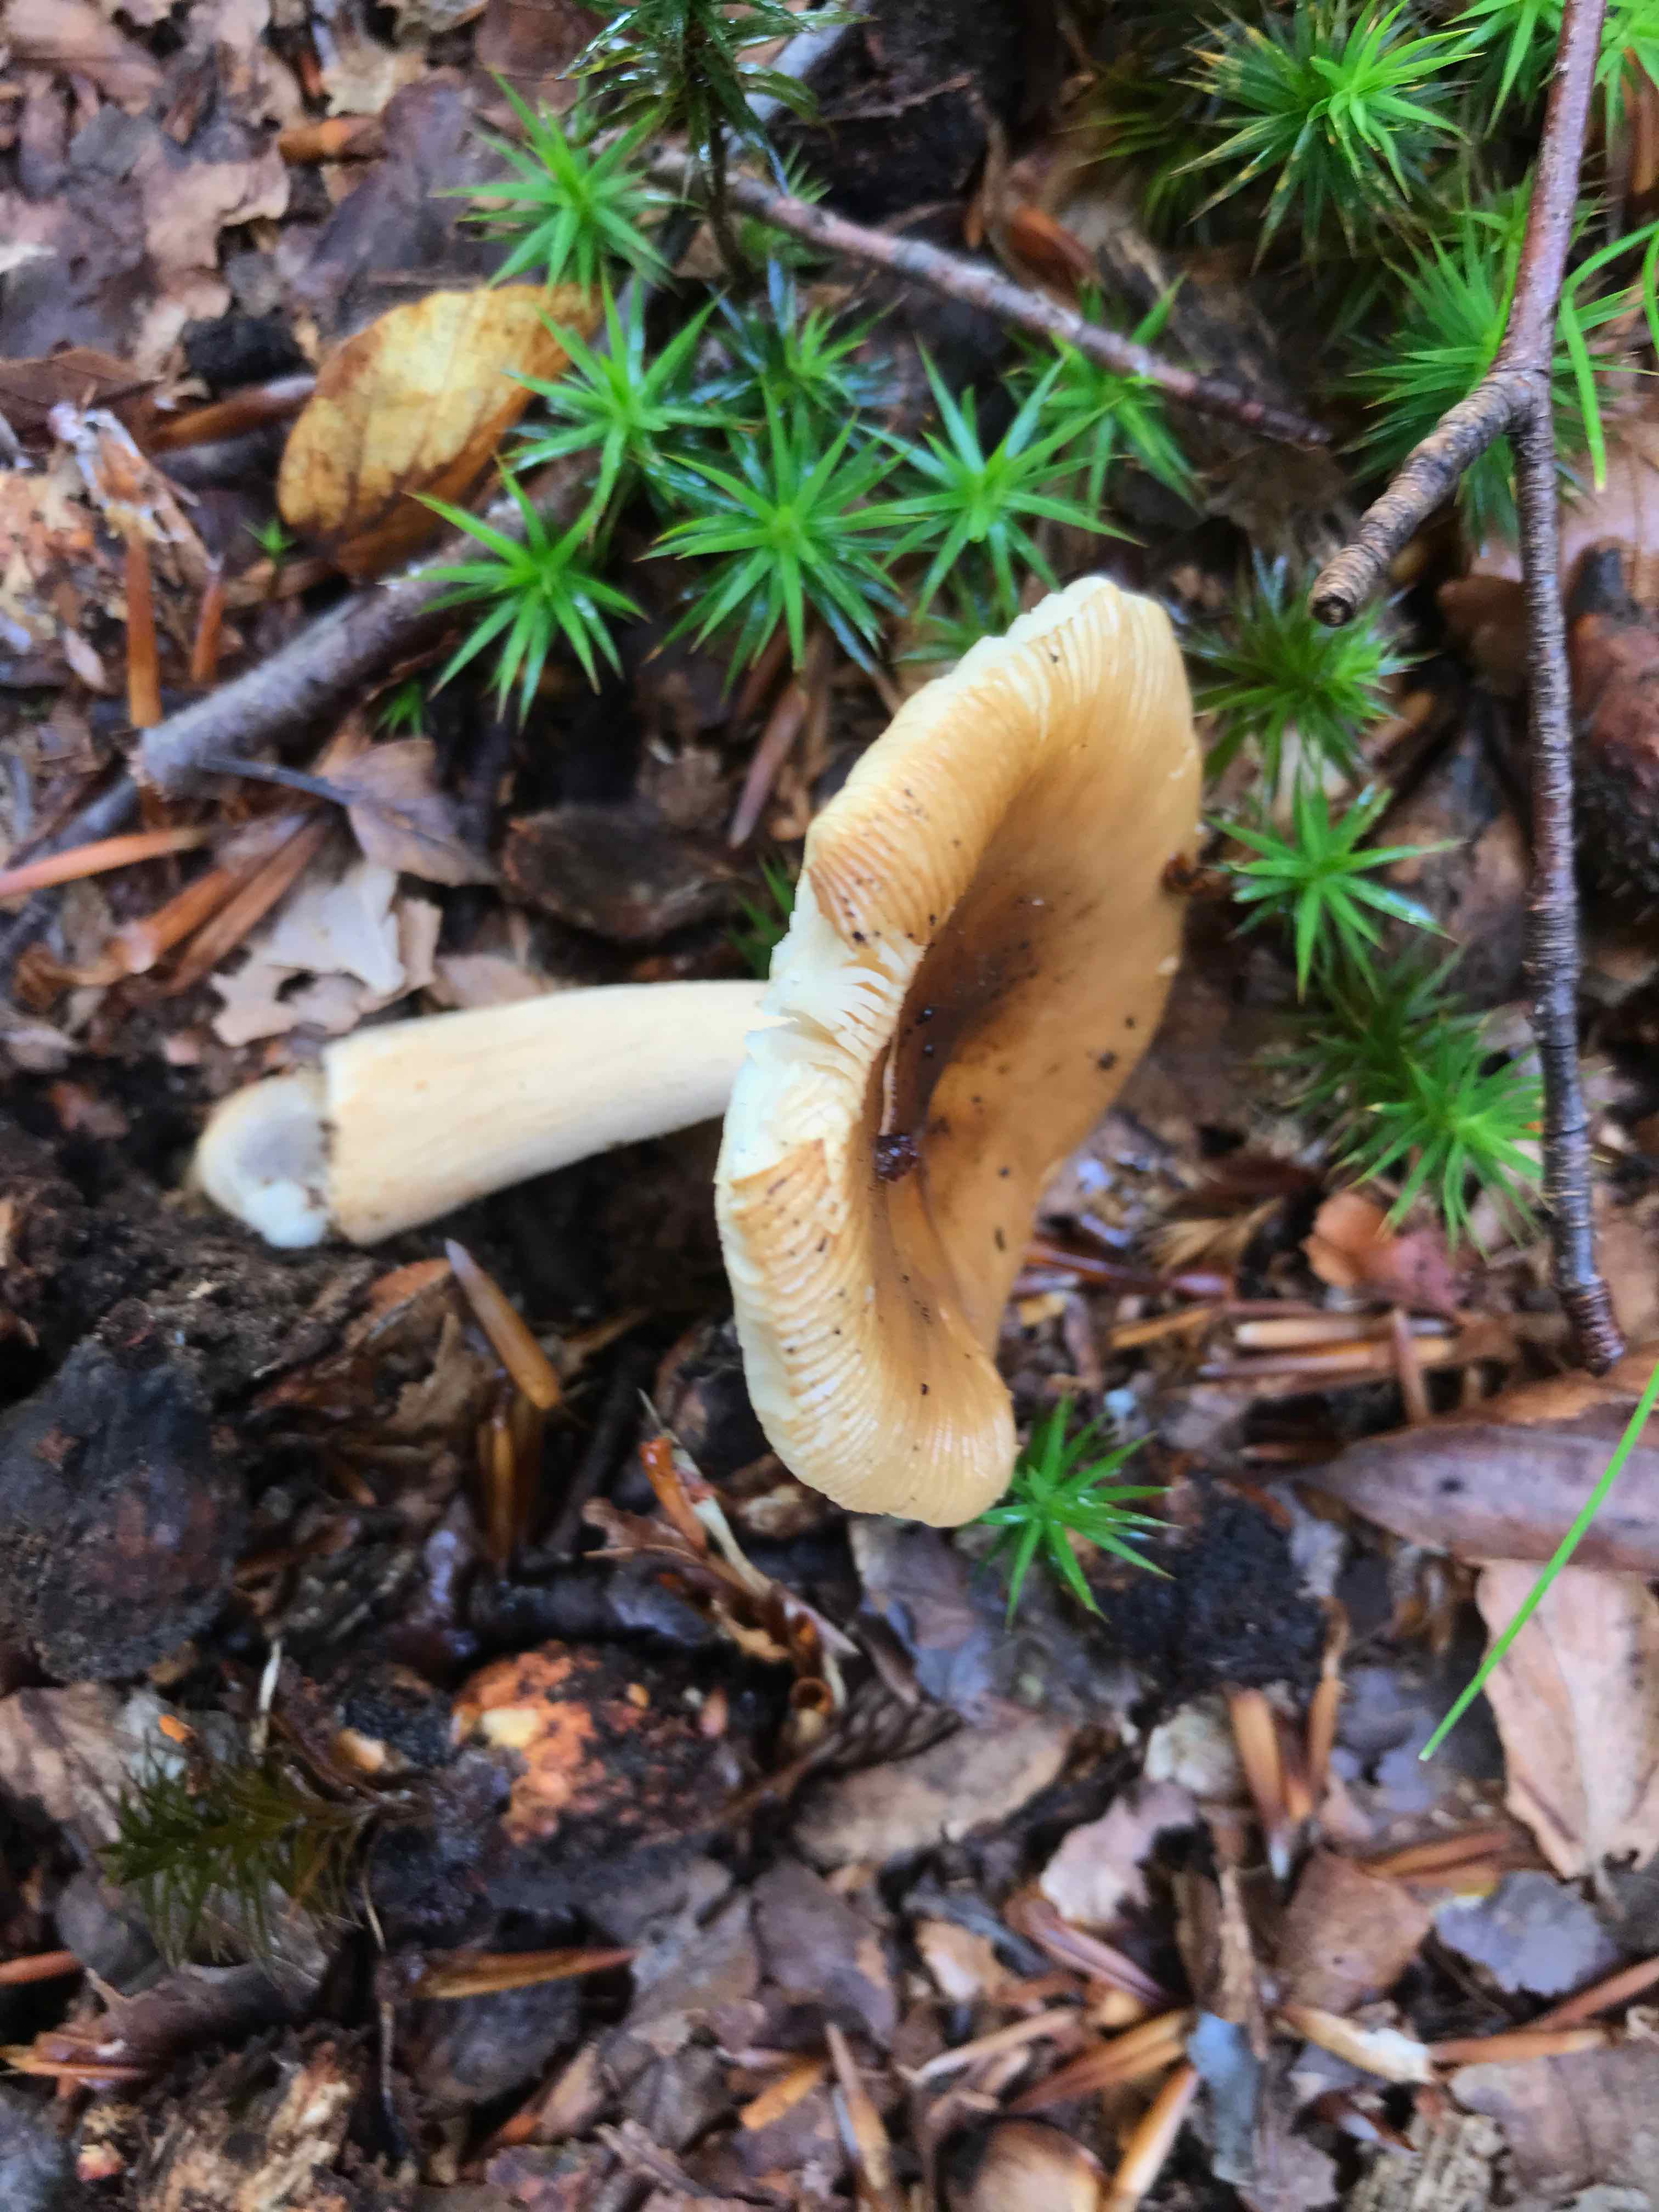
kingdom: Fungi
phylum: Basidiomycota
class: Agaricomycetes
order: Agaricales
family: Amanitaceae
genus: Amanita
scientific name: Amanita fulva
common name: brun kam-fluesvamp
